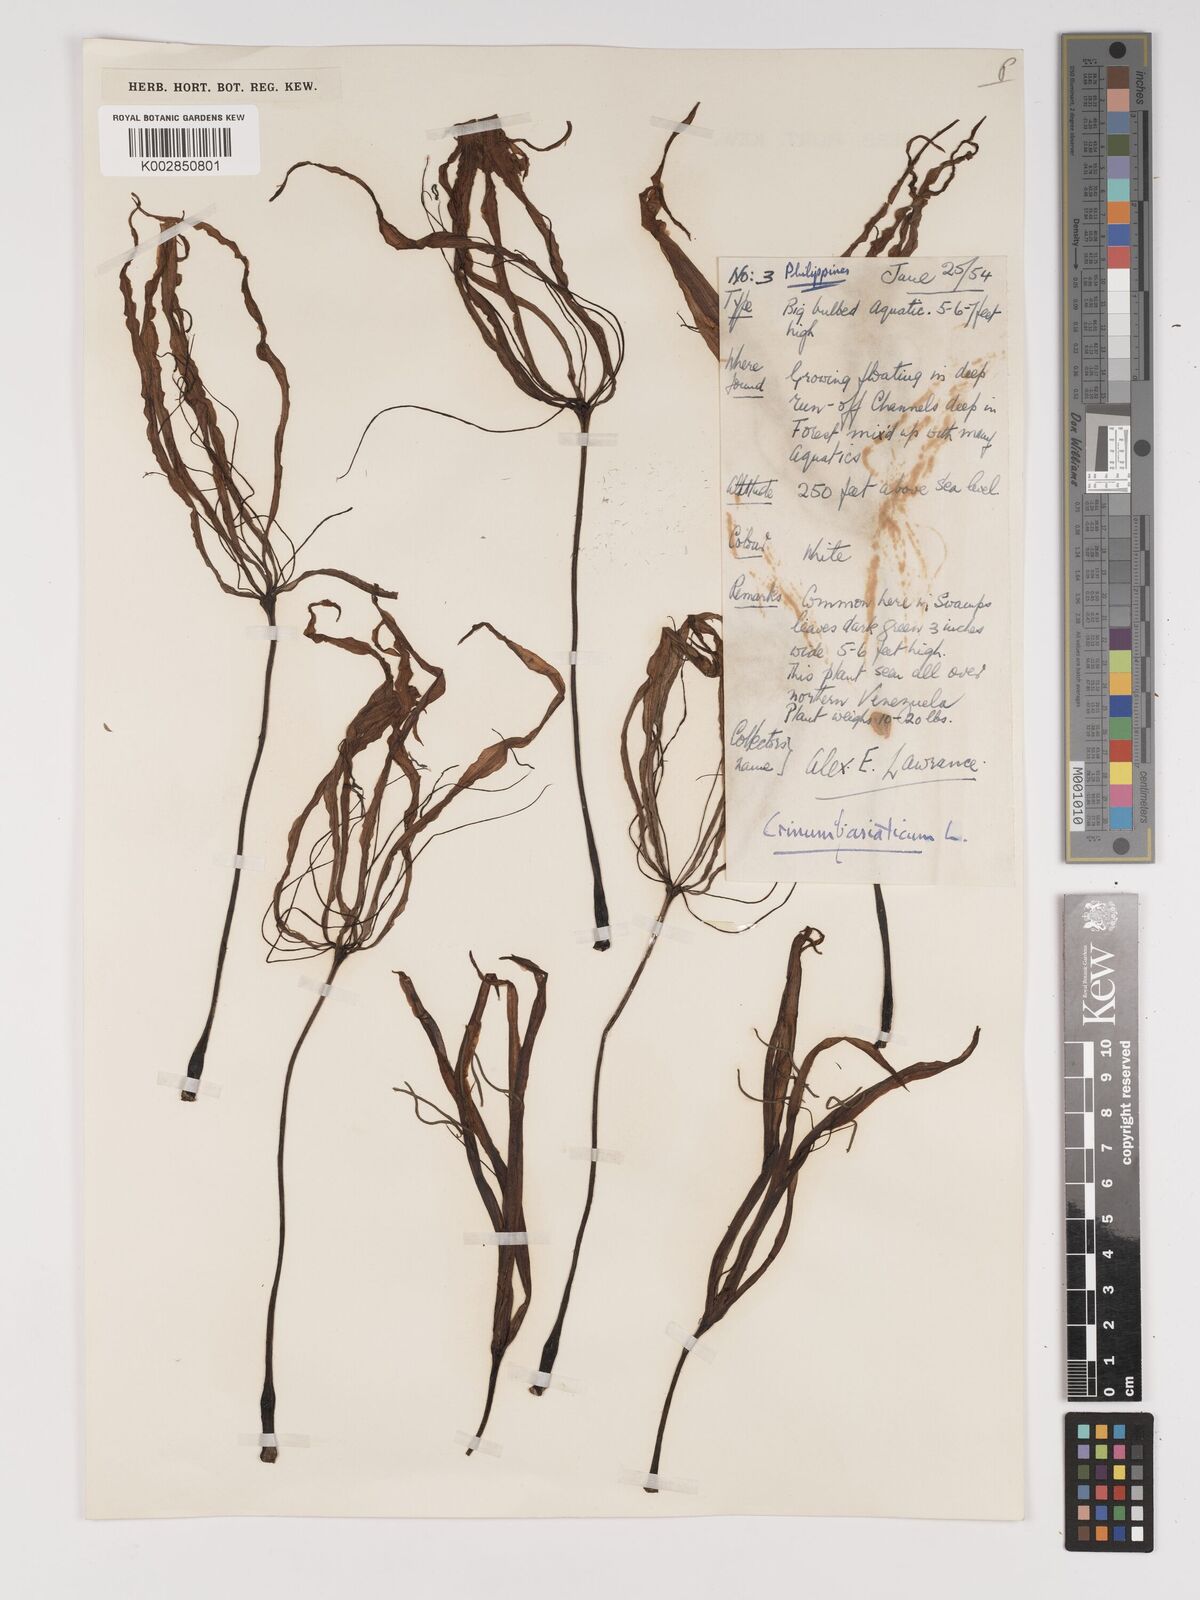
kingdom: Plantae
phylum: Tracheophyta
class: Liliopsida
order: Asparagales
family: Amaryllidaceae
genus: Crinum
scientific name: Crinum
